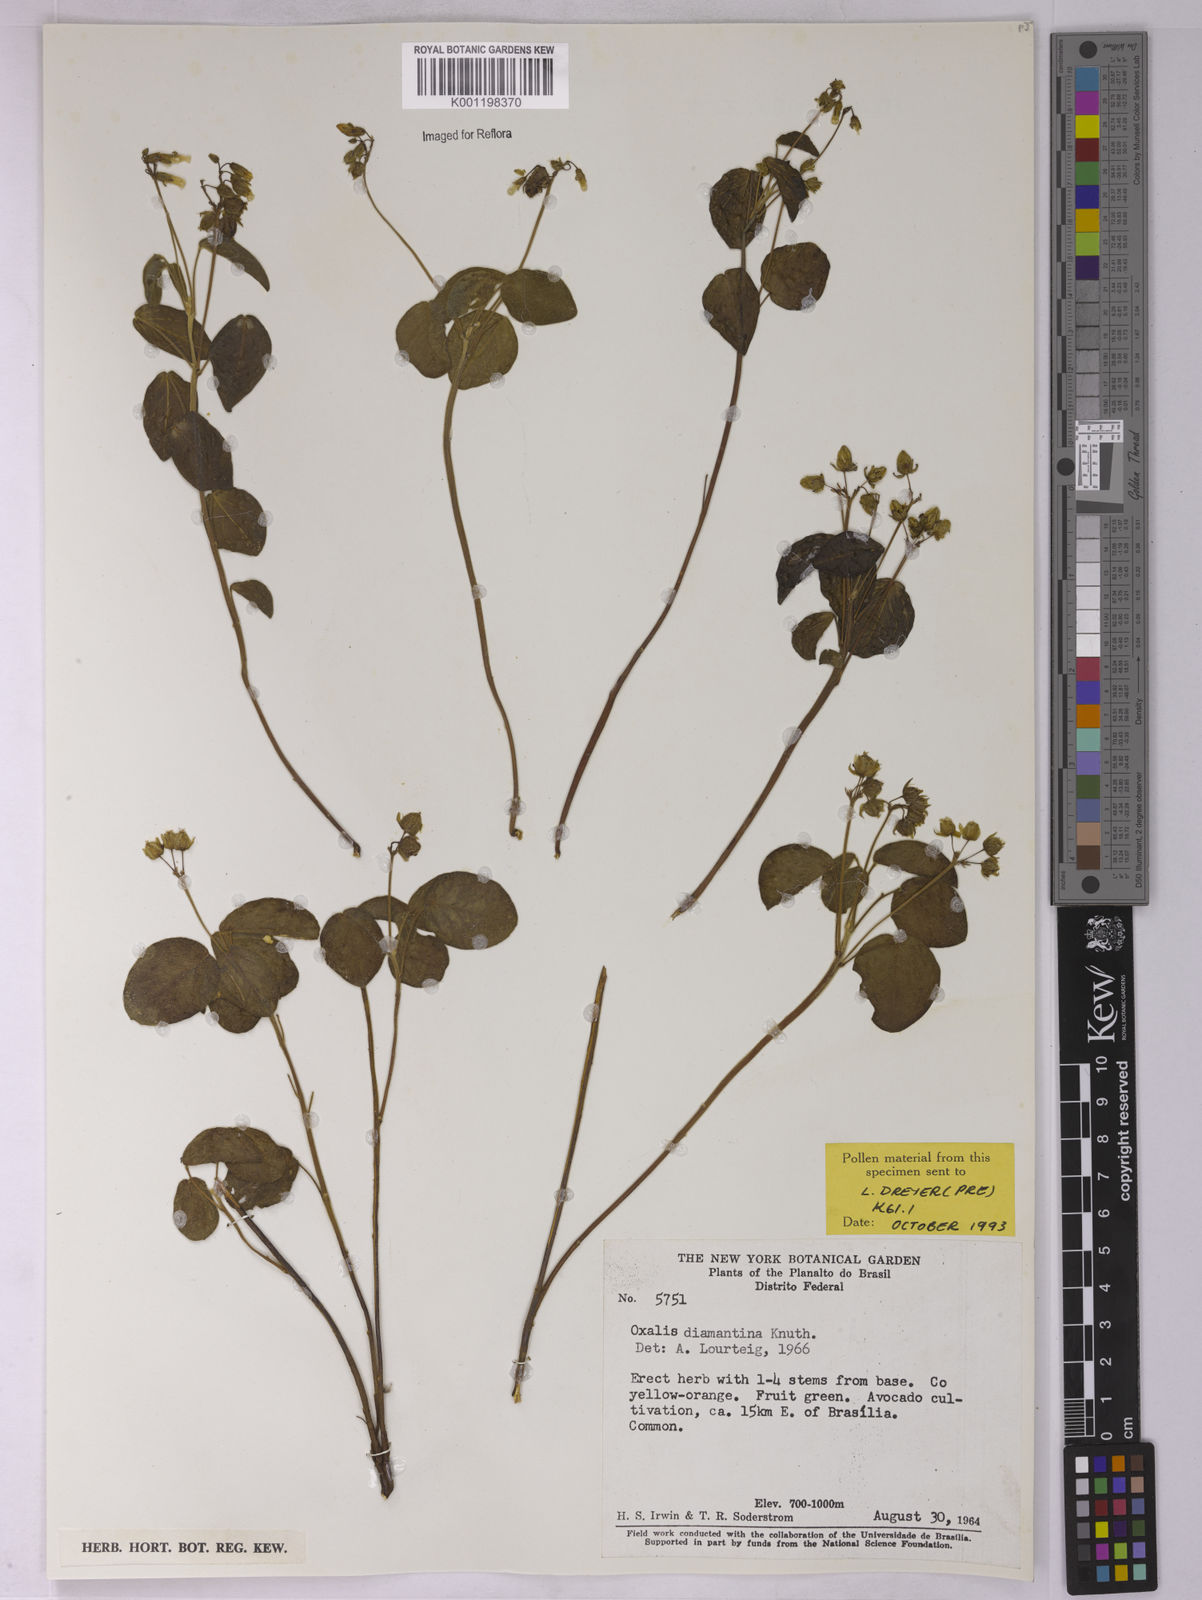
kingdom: Plantae
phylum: Tracheophyta
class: Magnoliopsida
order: Oxalidales
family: Oxalidaceae
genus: Oxalis
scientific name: Oxalis diamantinae
